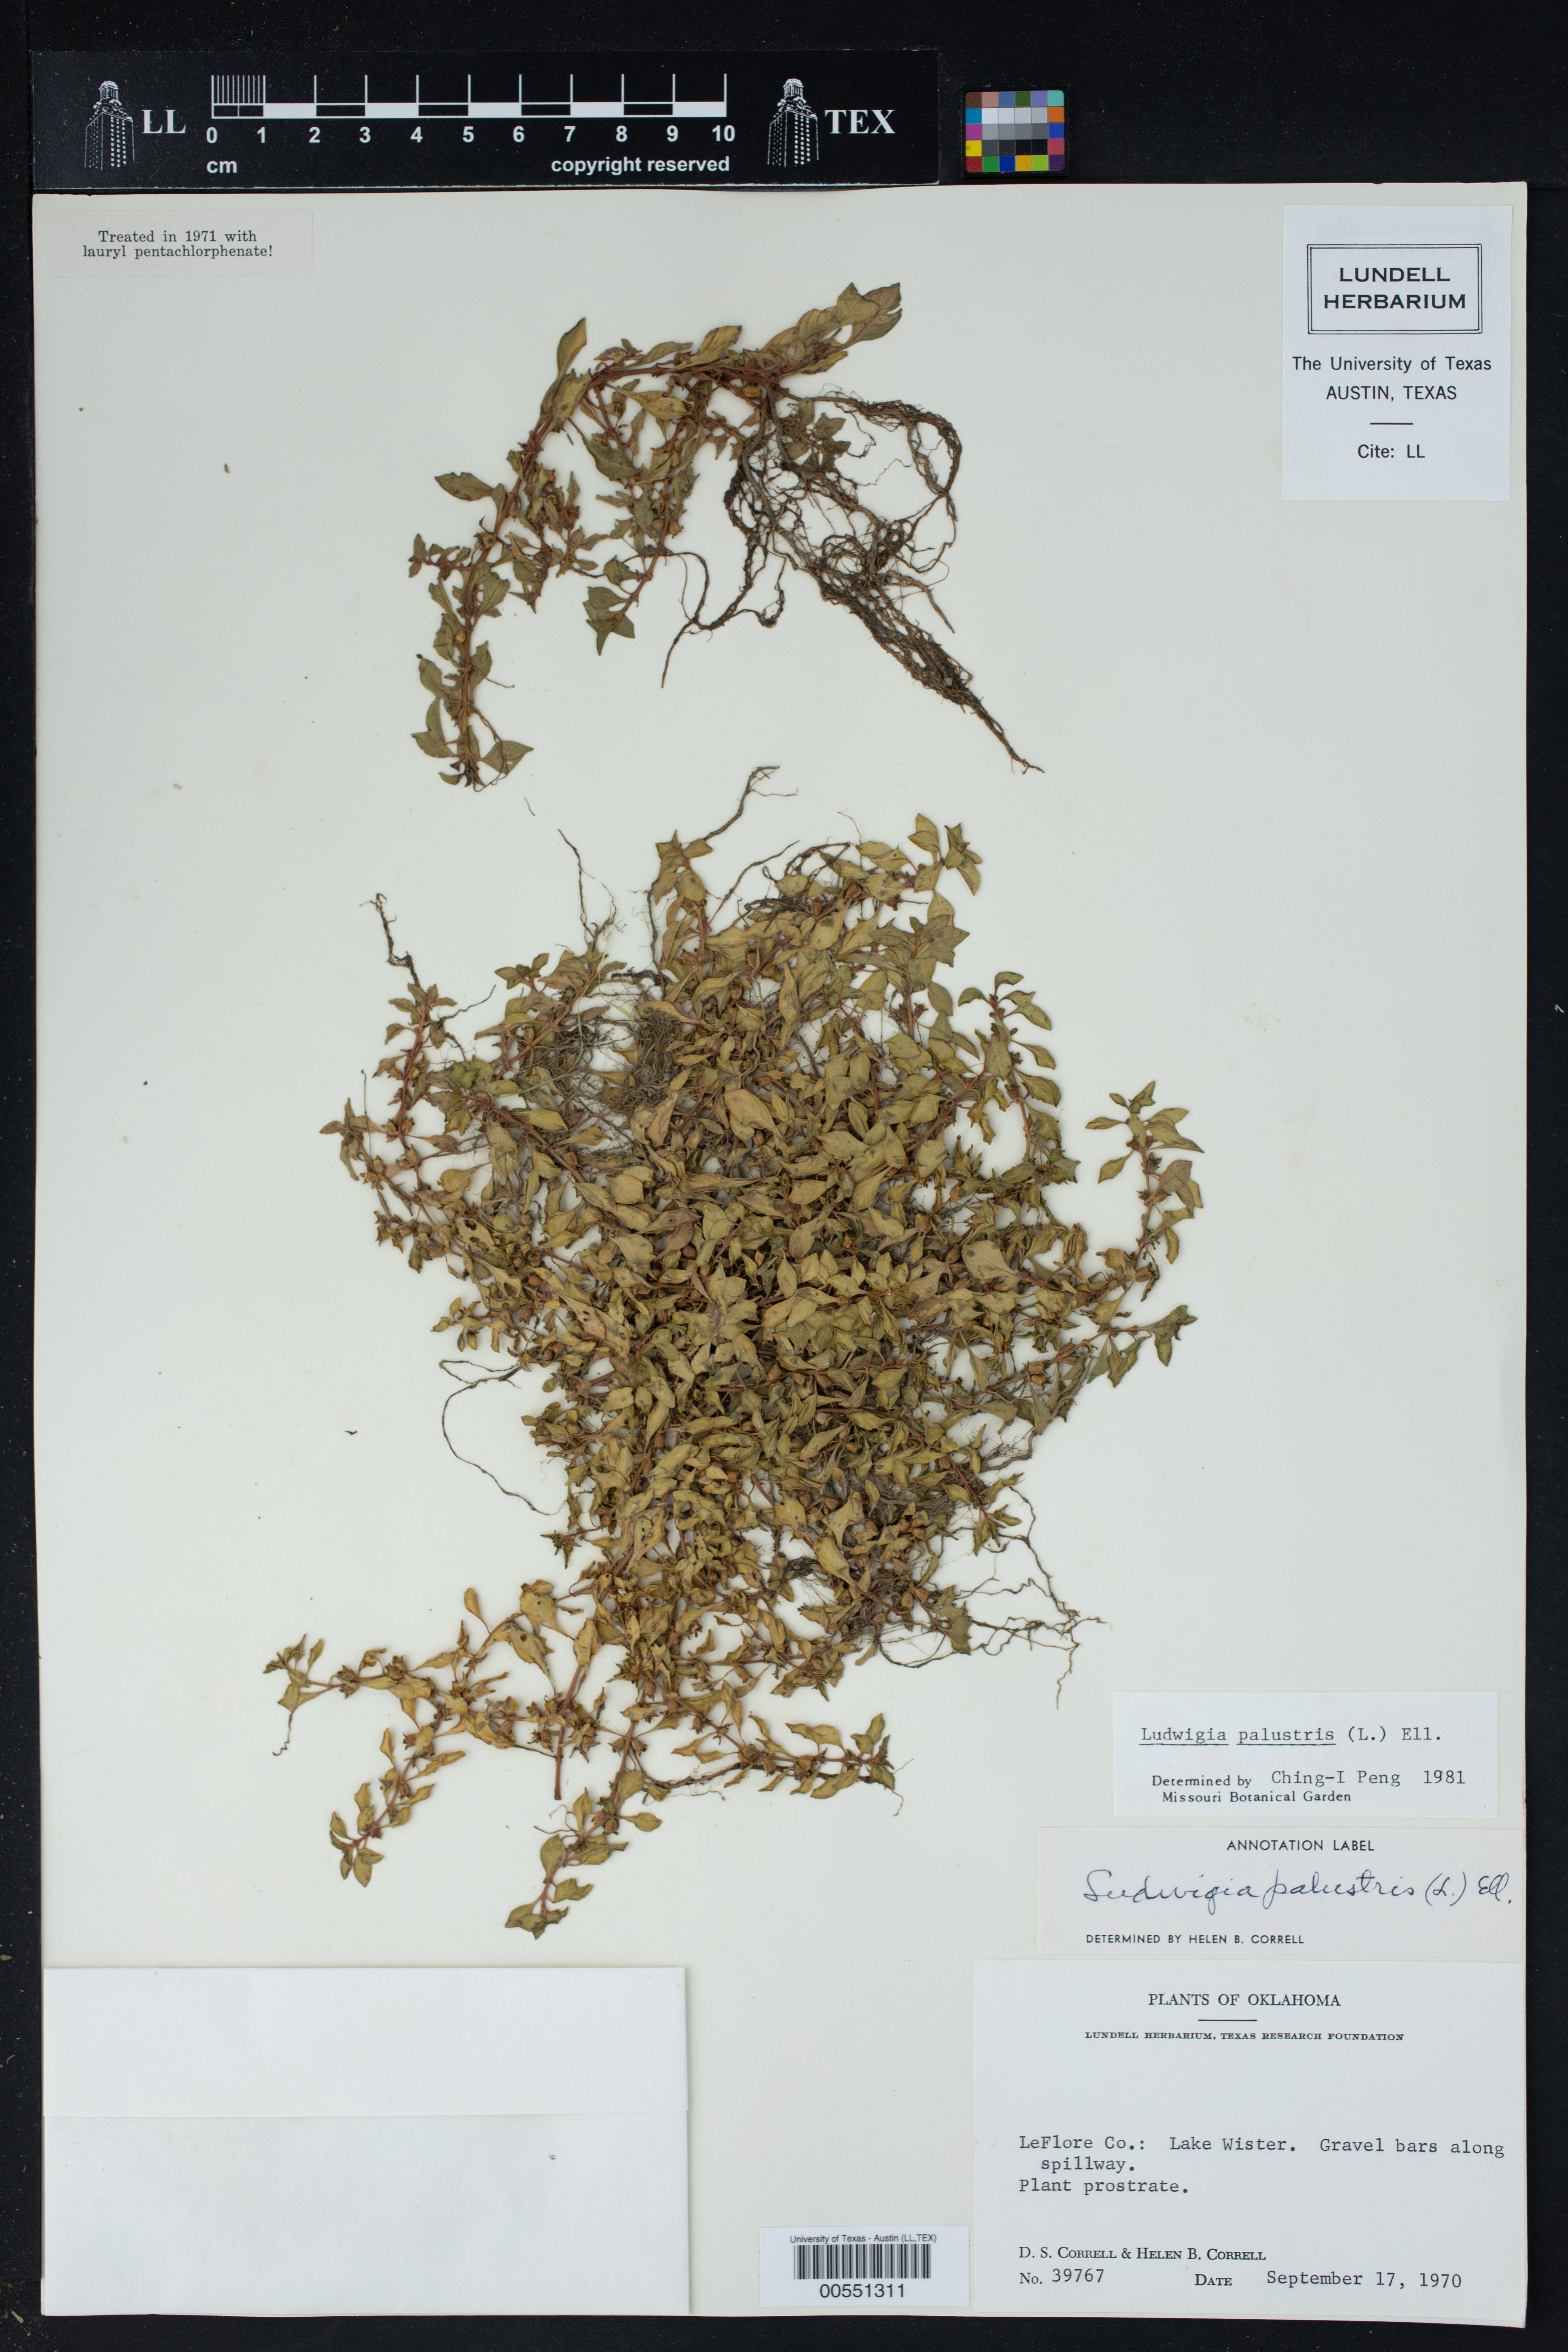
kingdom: Plantae
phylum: Tracheophyta
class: Magnoliopsida
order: Myrtales
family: Onagraceae
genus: Ludwigia
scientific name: Ludwigia palustris
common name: Hampshire-purslane
